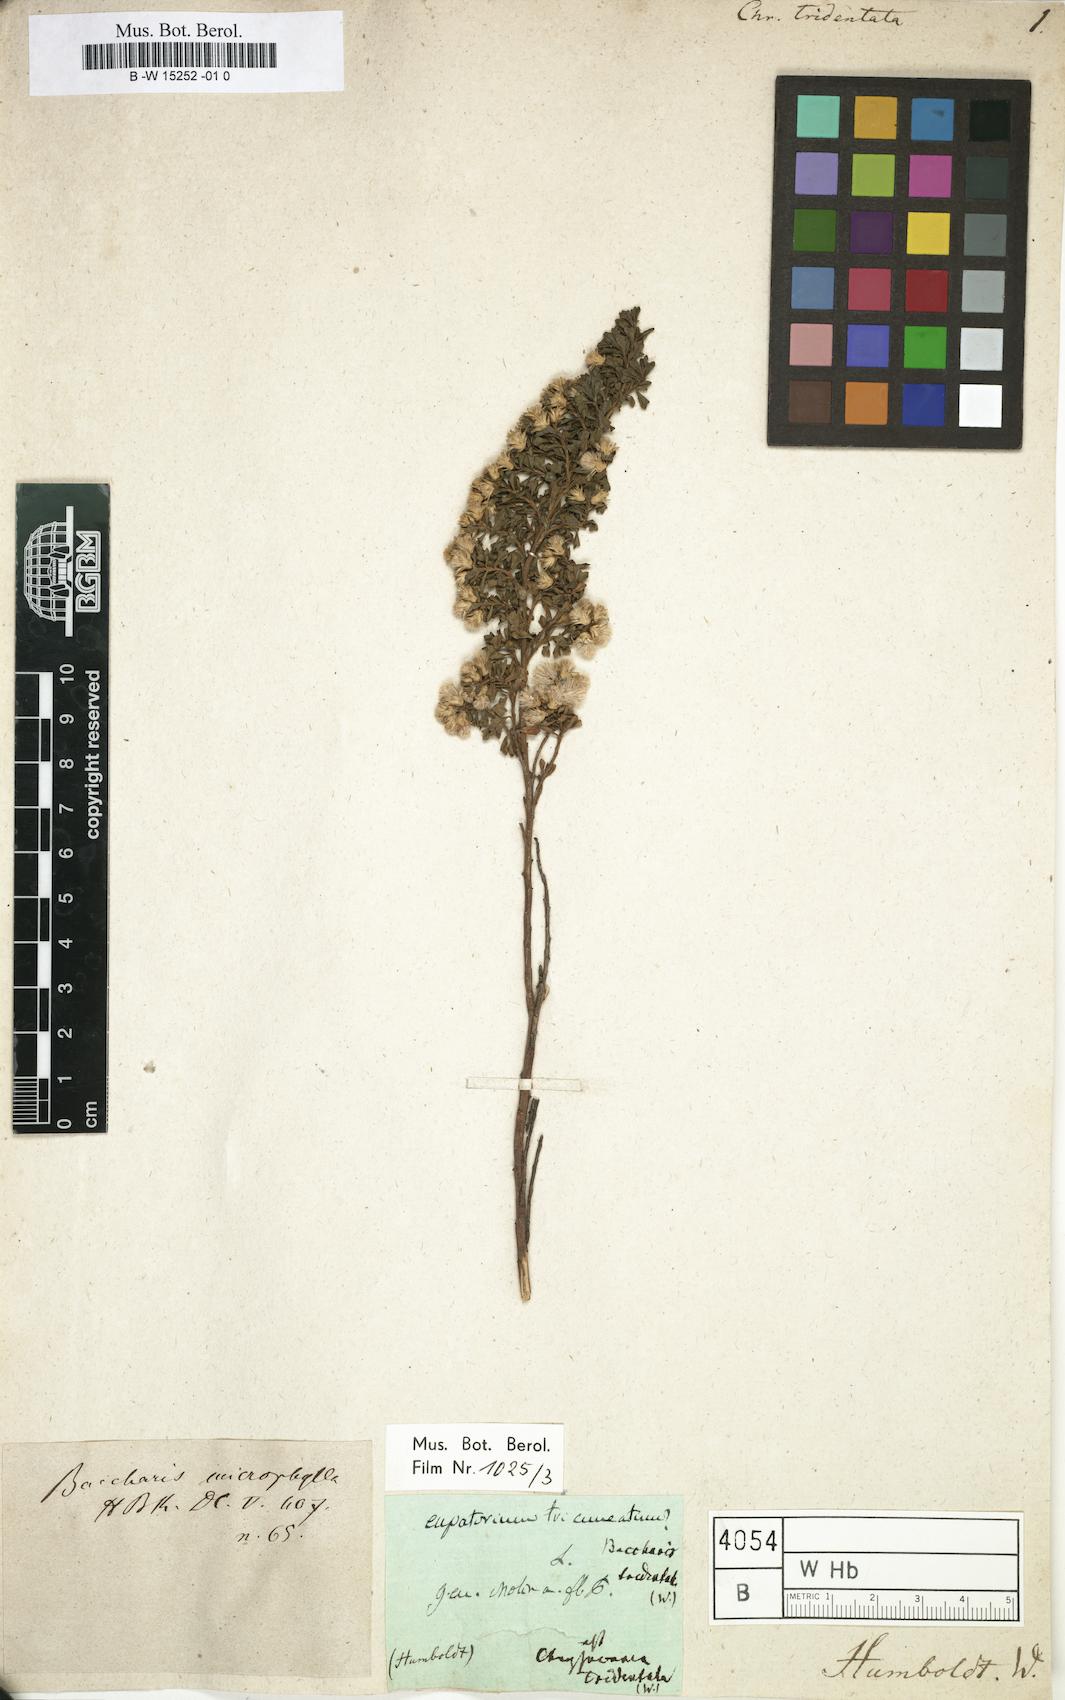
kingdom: Plantae
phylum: Tracheophyta
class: Magnoliopsida
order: Asterales
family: Asteraceae
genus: Chrysocoma
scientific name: Chrysocoma tridentata
